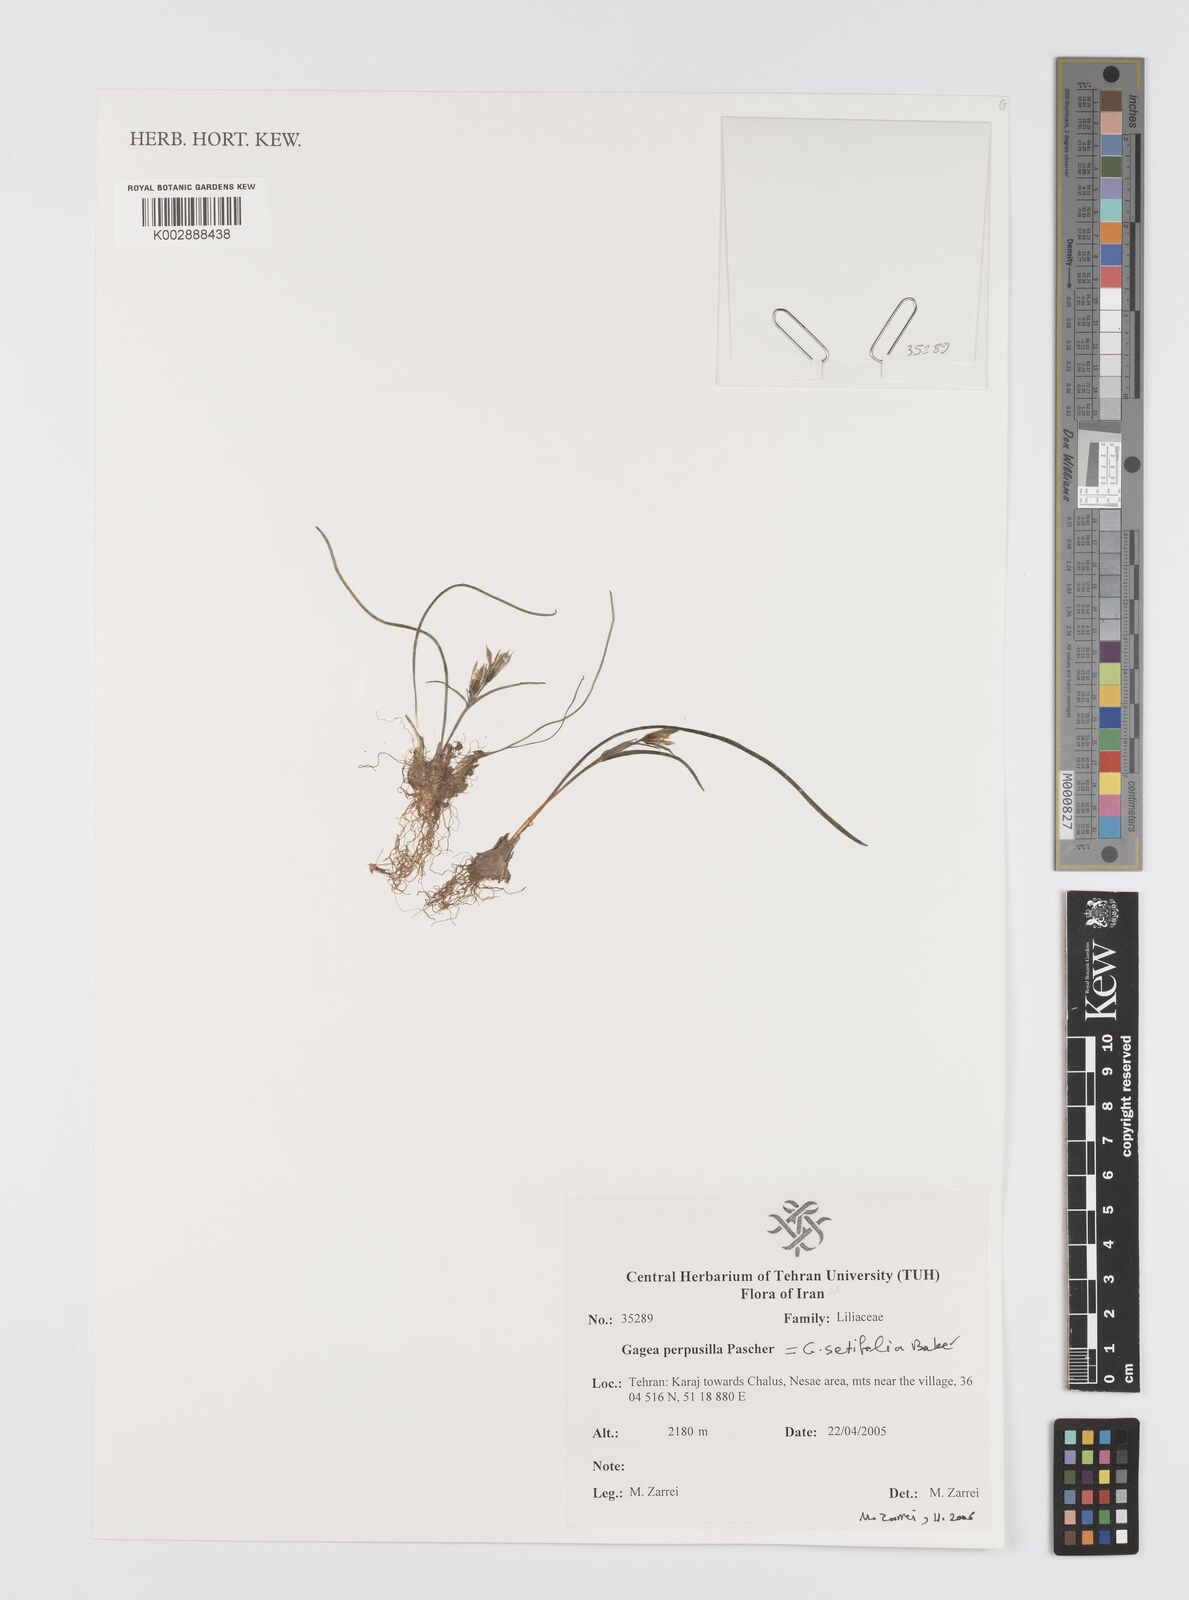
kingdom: Plantae
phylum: Tracheophyta
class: Liliopsida
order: Liliales
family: Liliaceae
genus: Gagea
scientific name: Gagea setifolia
